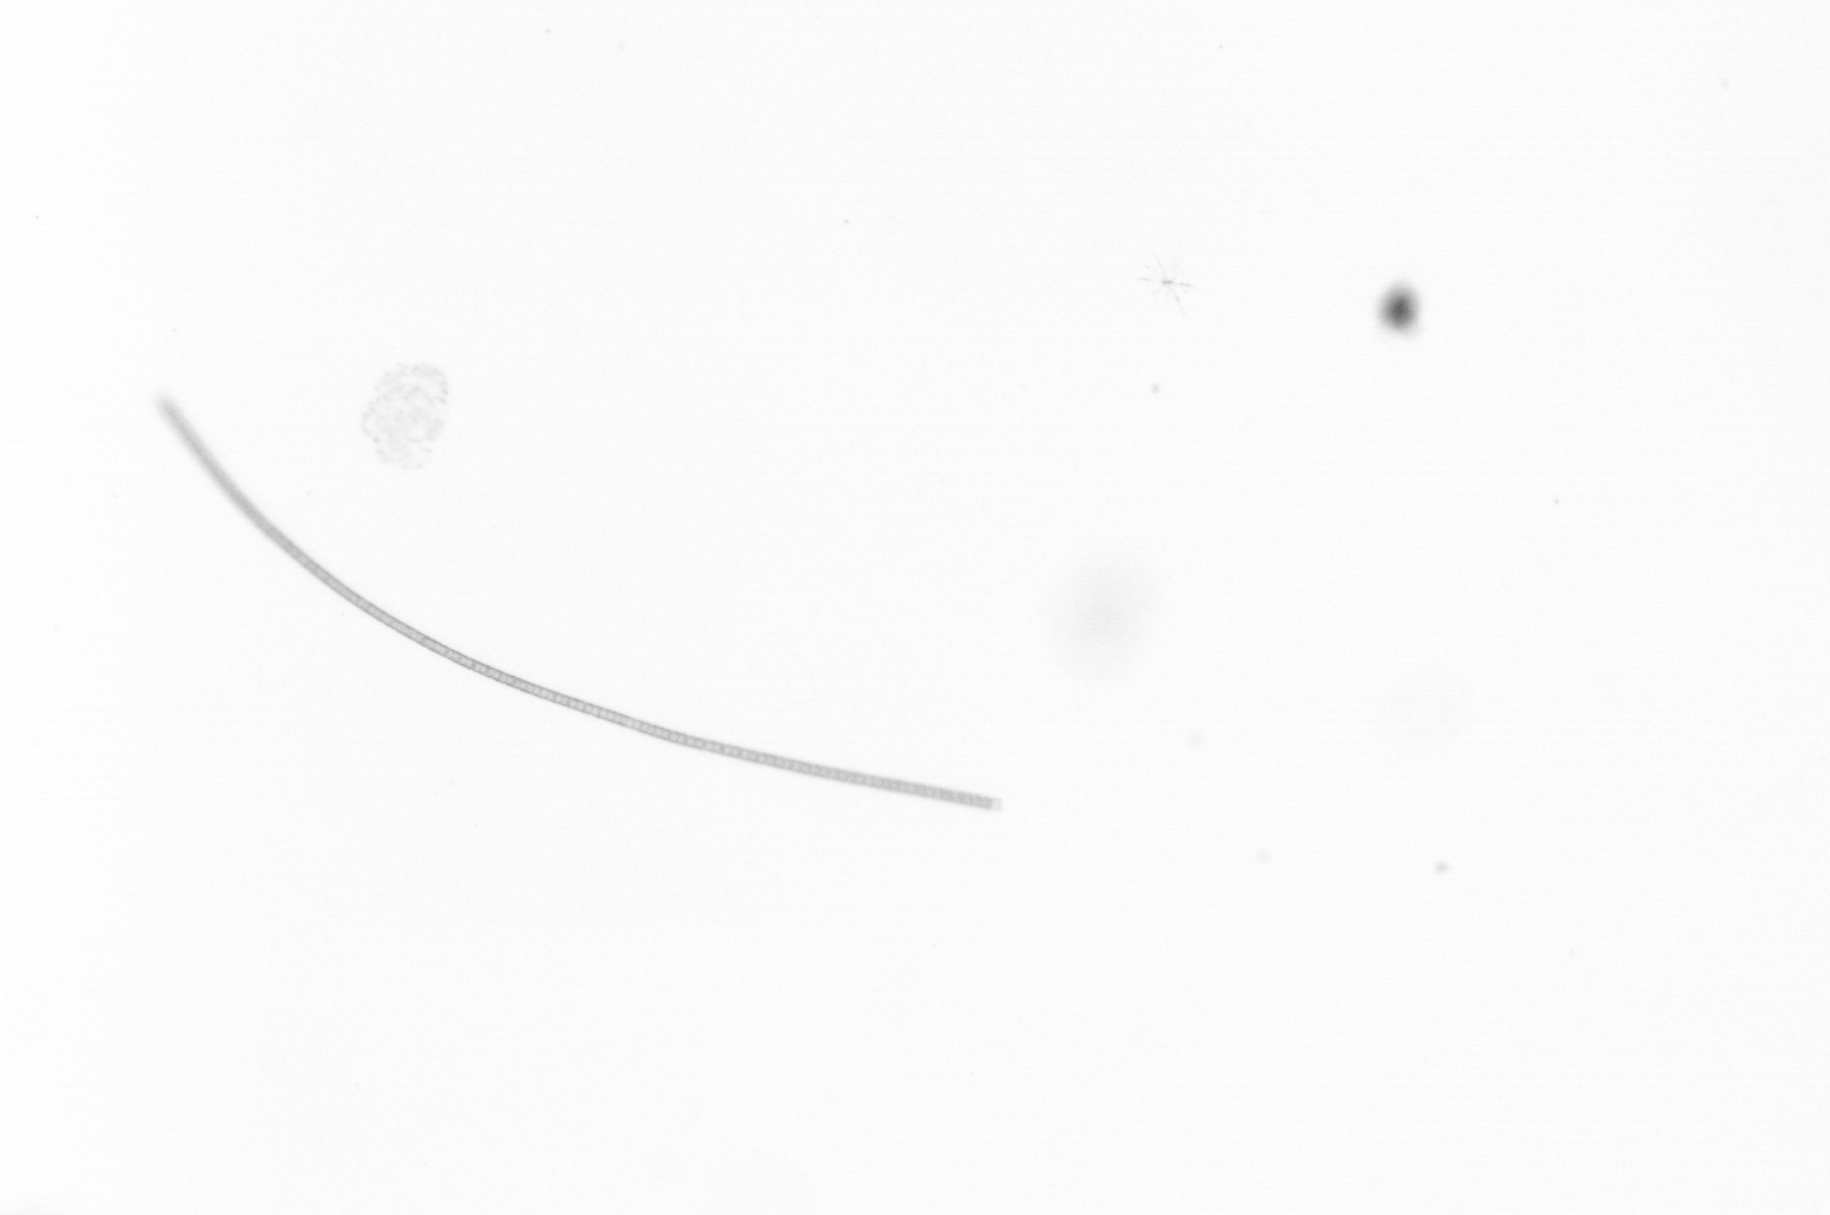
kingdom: Chromista
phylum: Ochrophyta
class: Bacillariophyceae
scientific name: Bacillariophyceae
